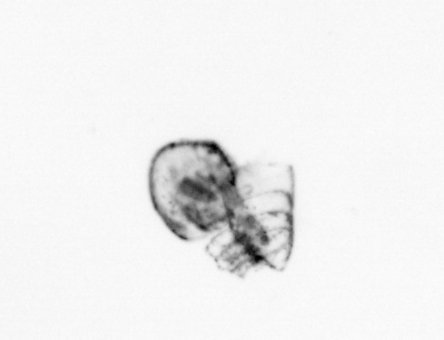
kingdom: Animalia
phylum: Arthropoda
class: Maxillopoda
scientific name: Maxillopoda
